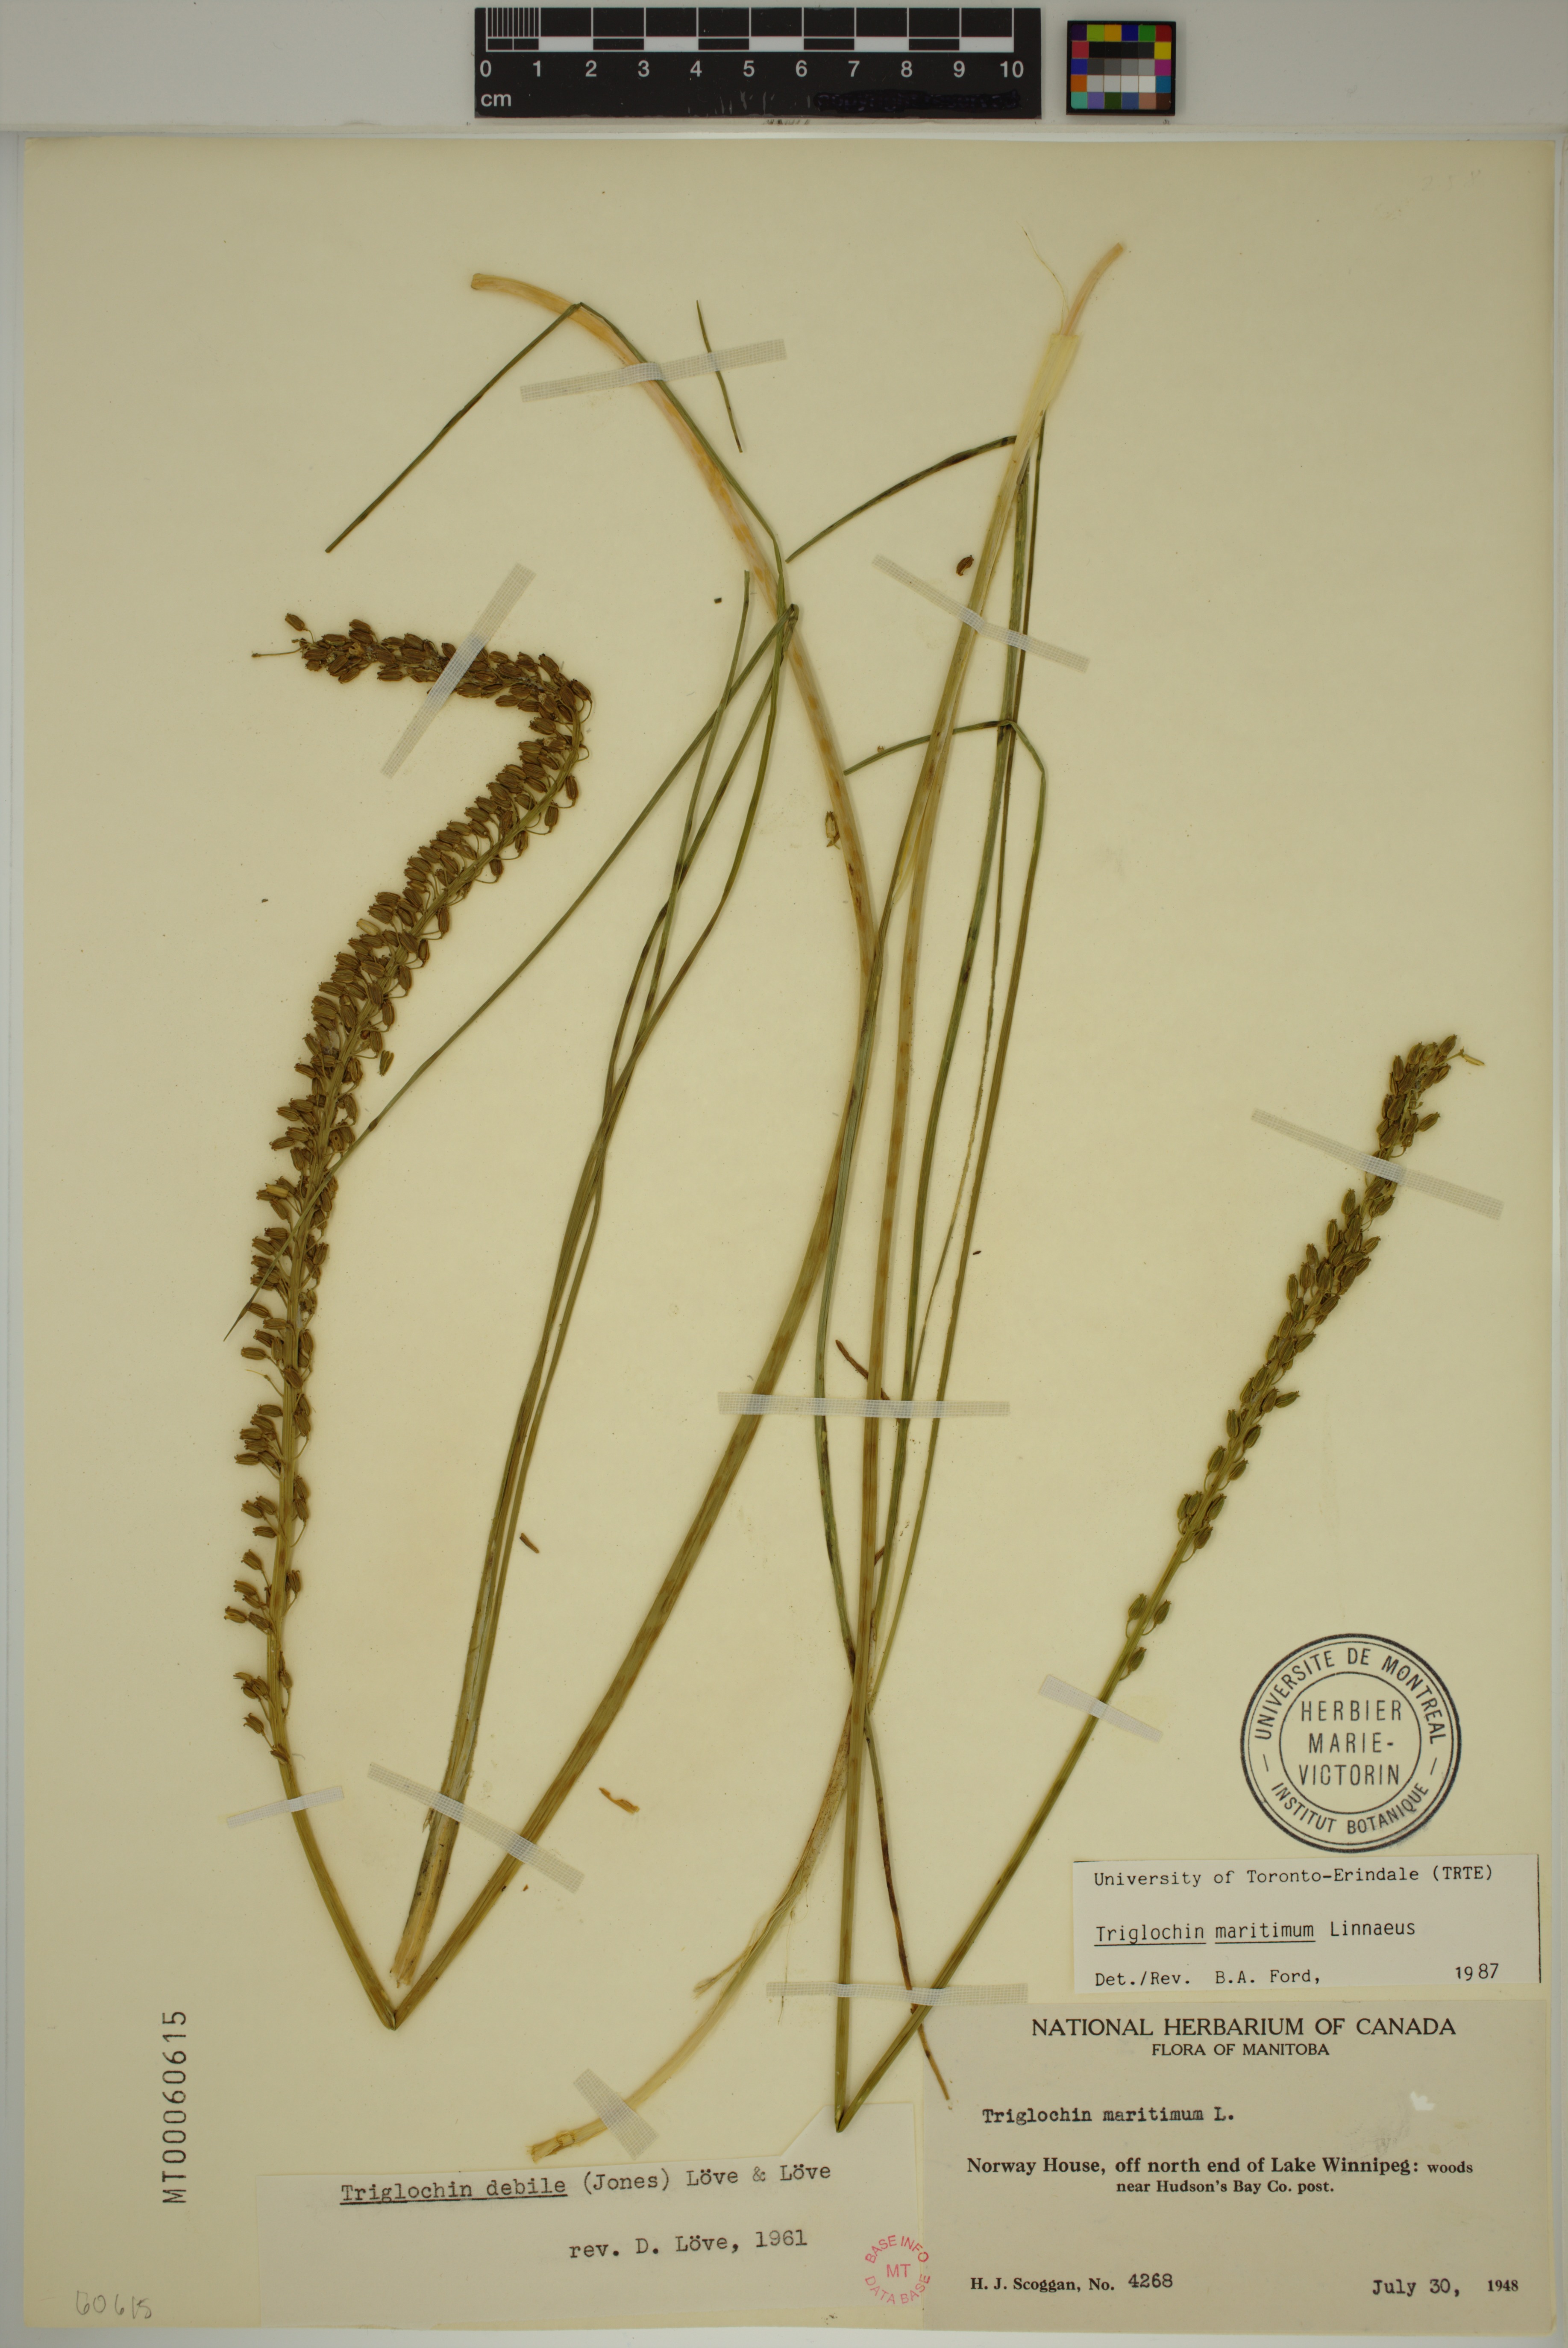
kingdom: Plantae
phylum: Tracheophyta
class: Liliopsida
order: Alismatales
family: Juncaginaceae
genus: Triglochin
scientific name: Triglochin maritima
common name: Sea arrowgrass
